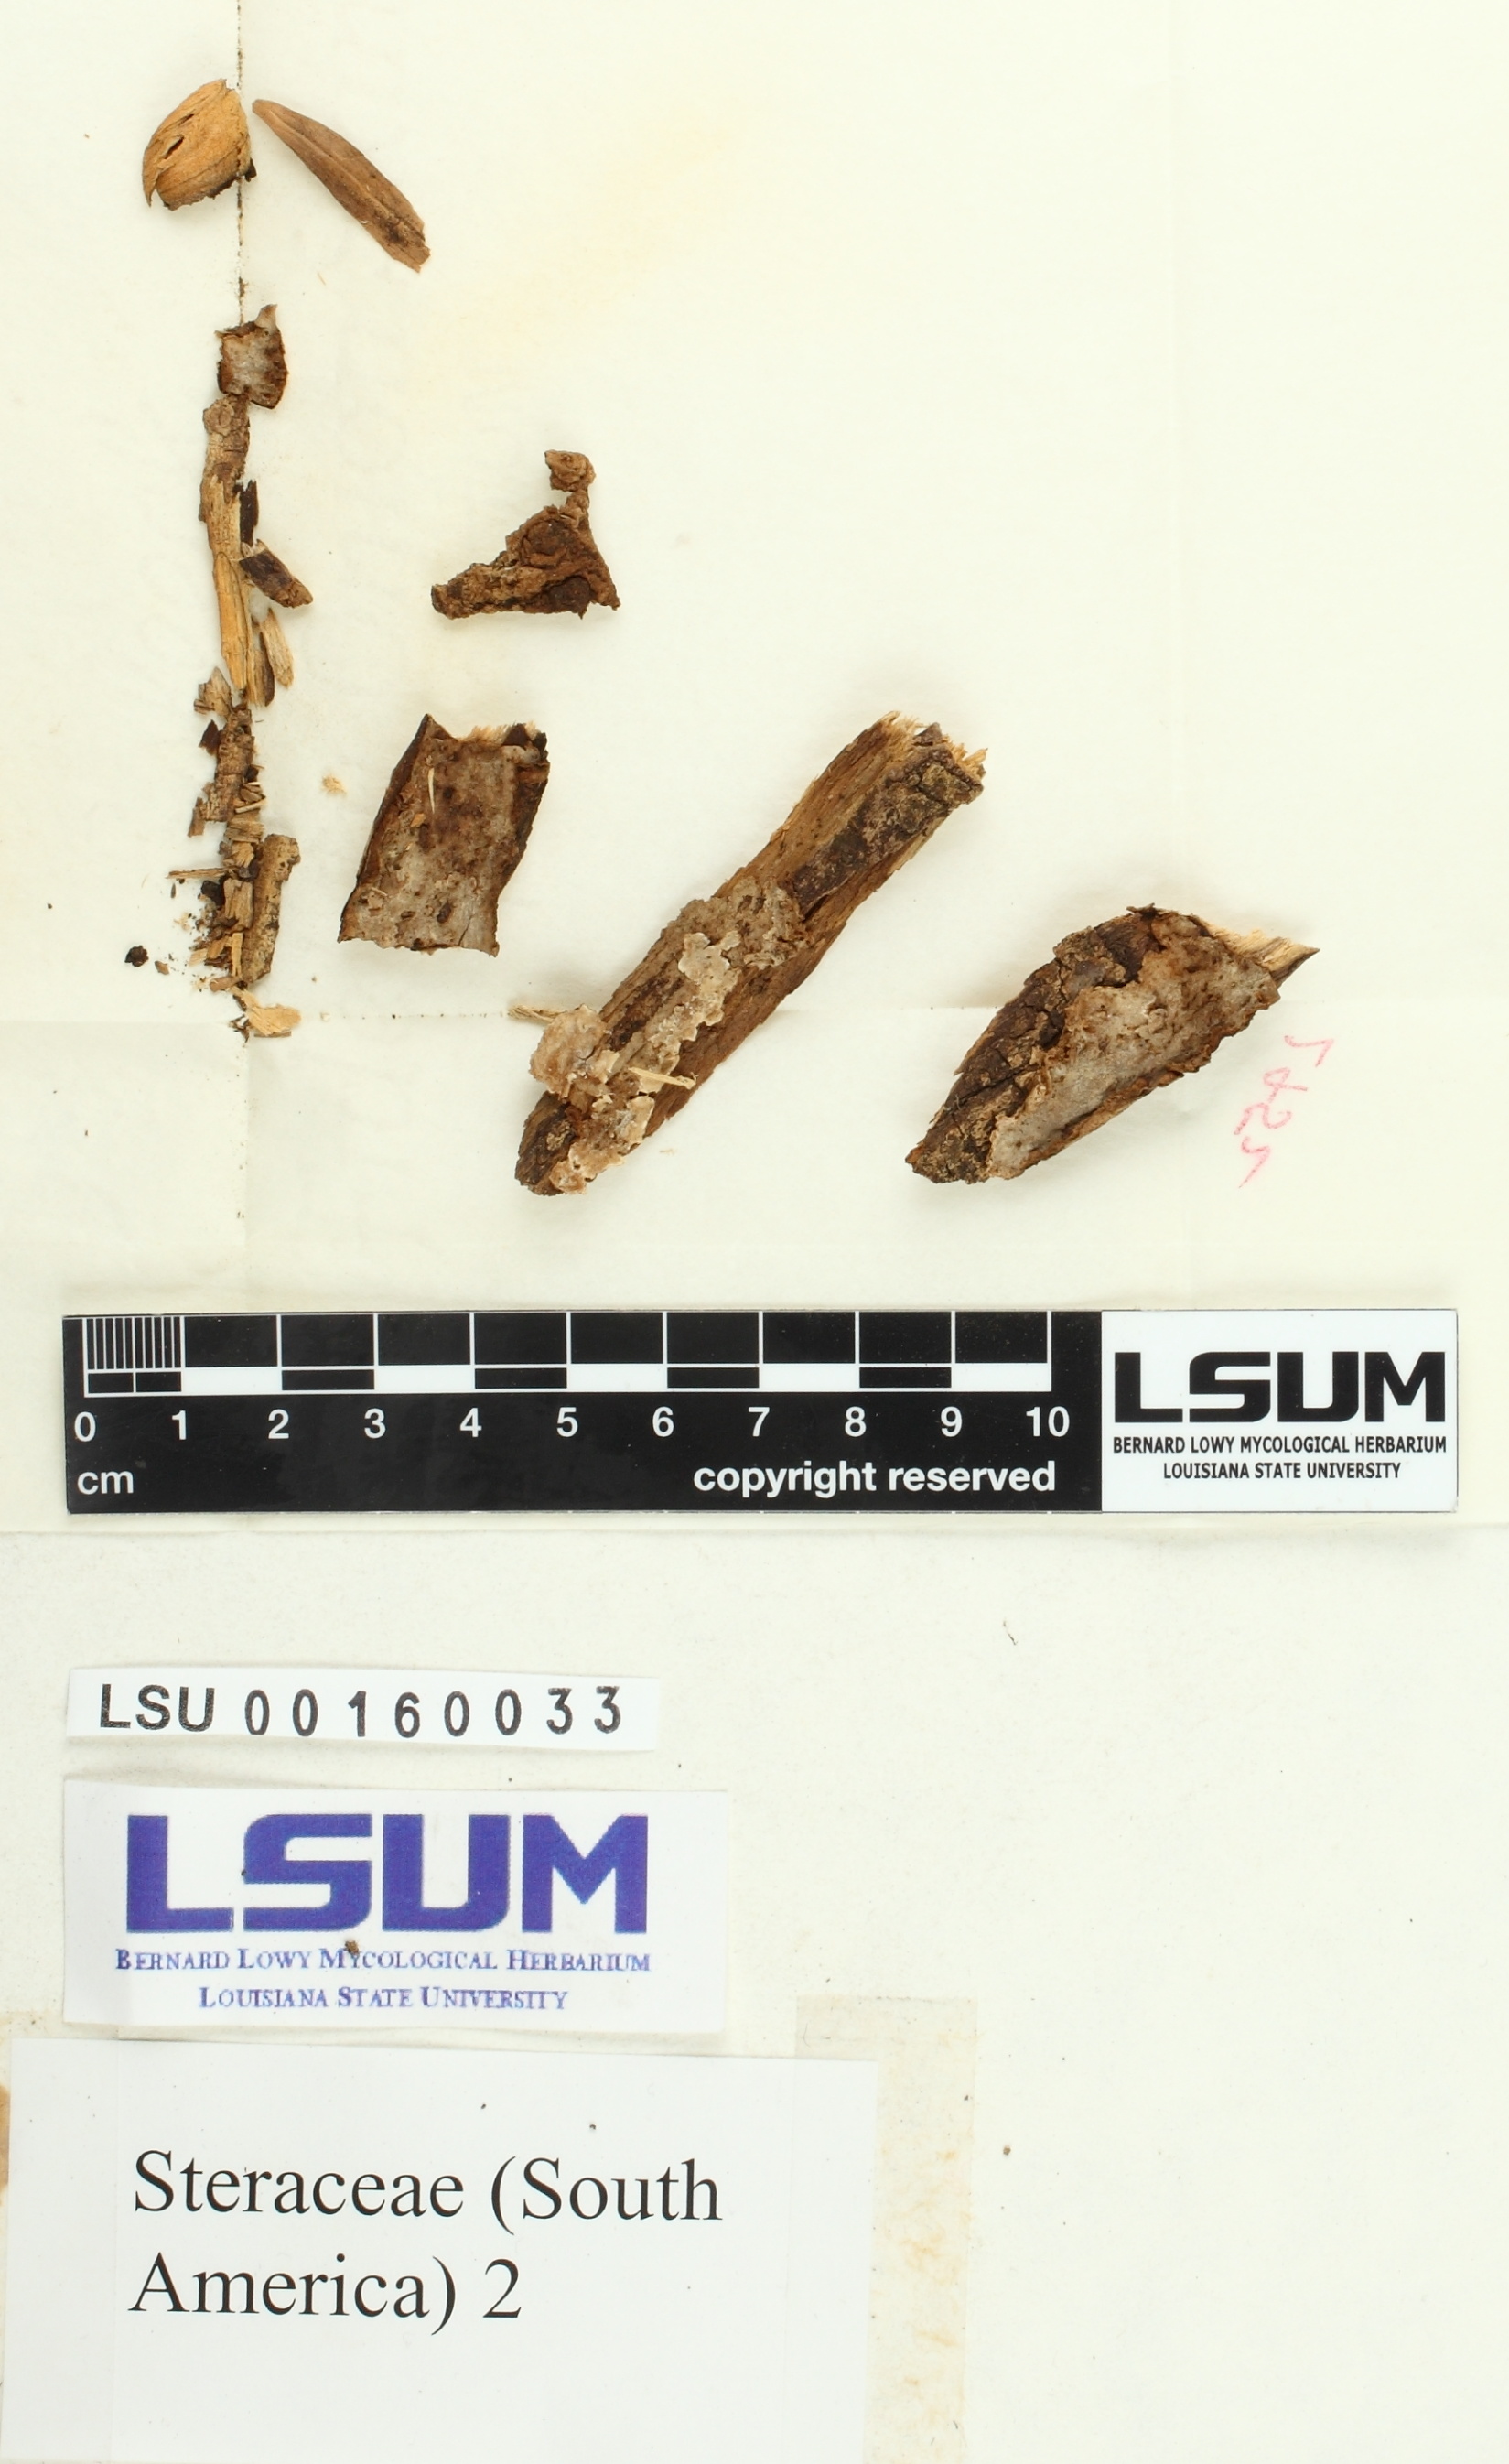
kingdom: Fungi
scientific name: Fungi
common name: Fungi
